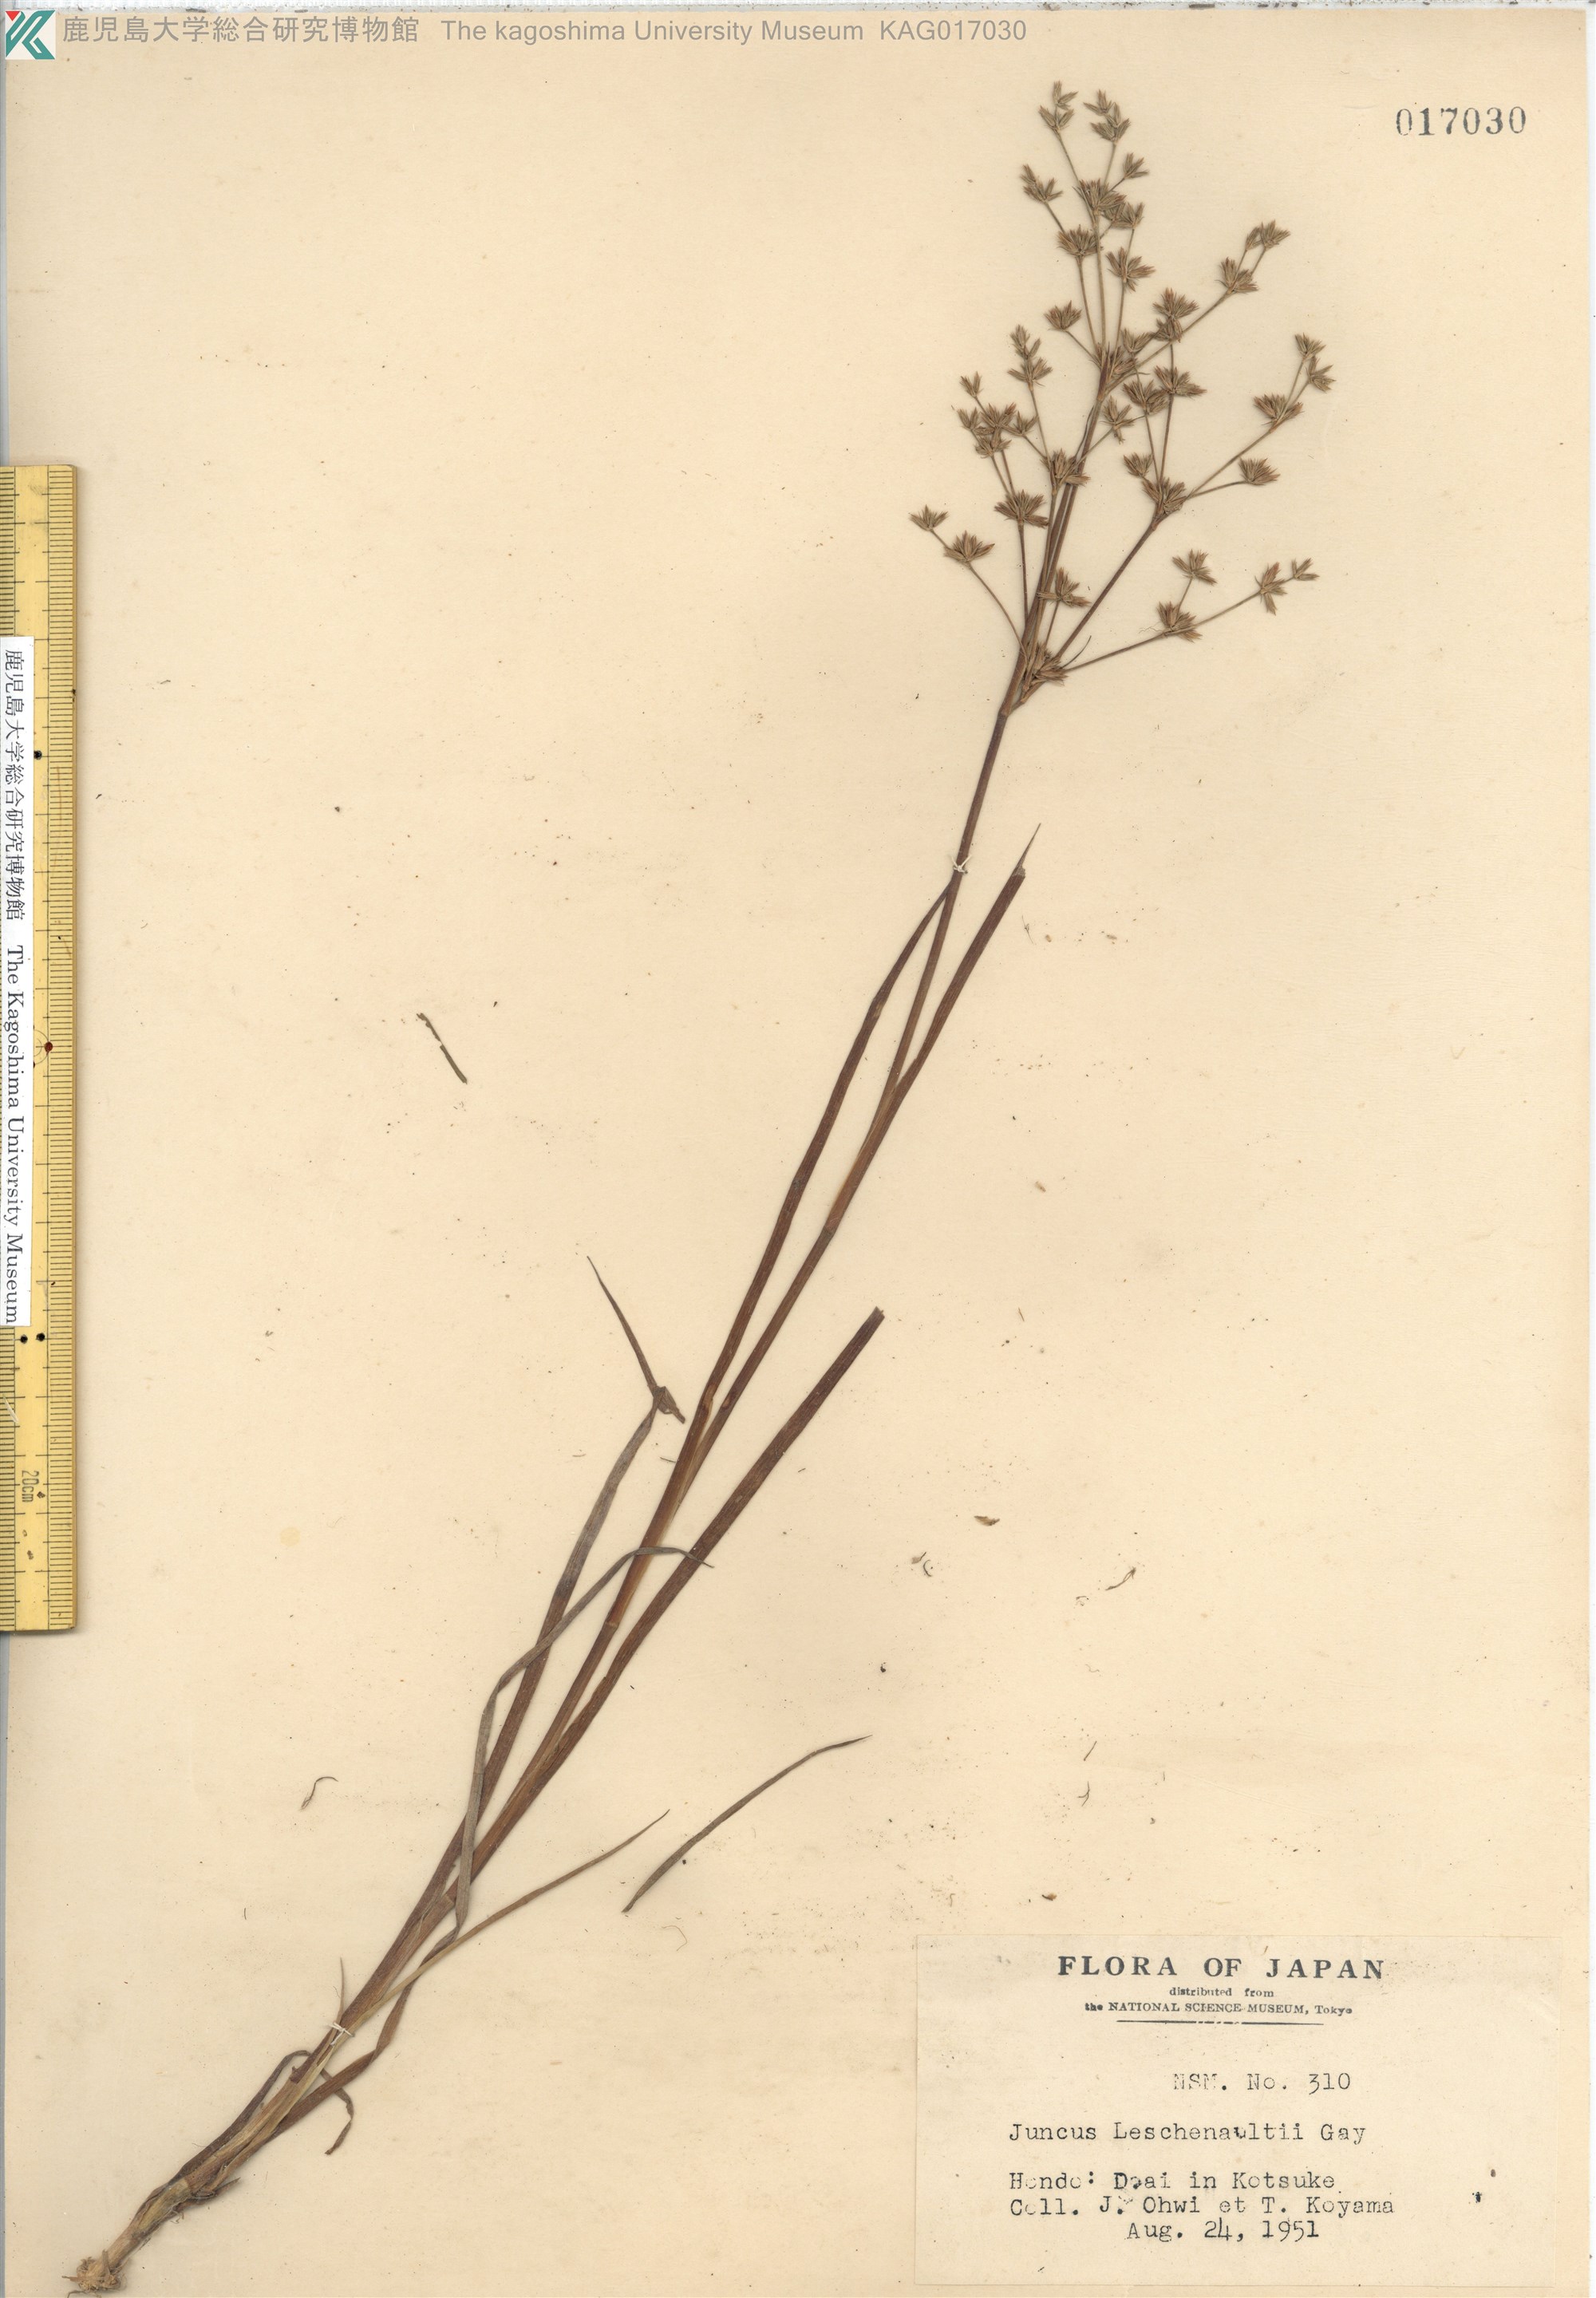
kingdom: Plantae
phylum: Tracheophyta
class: Liliopsida
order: Poales
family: Juncaceae
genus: Juncus
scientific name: Juncus prismatocarpus
